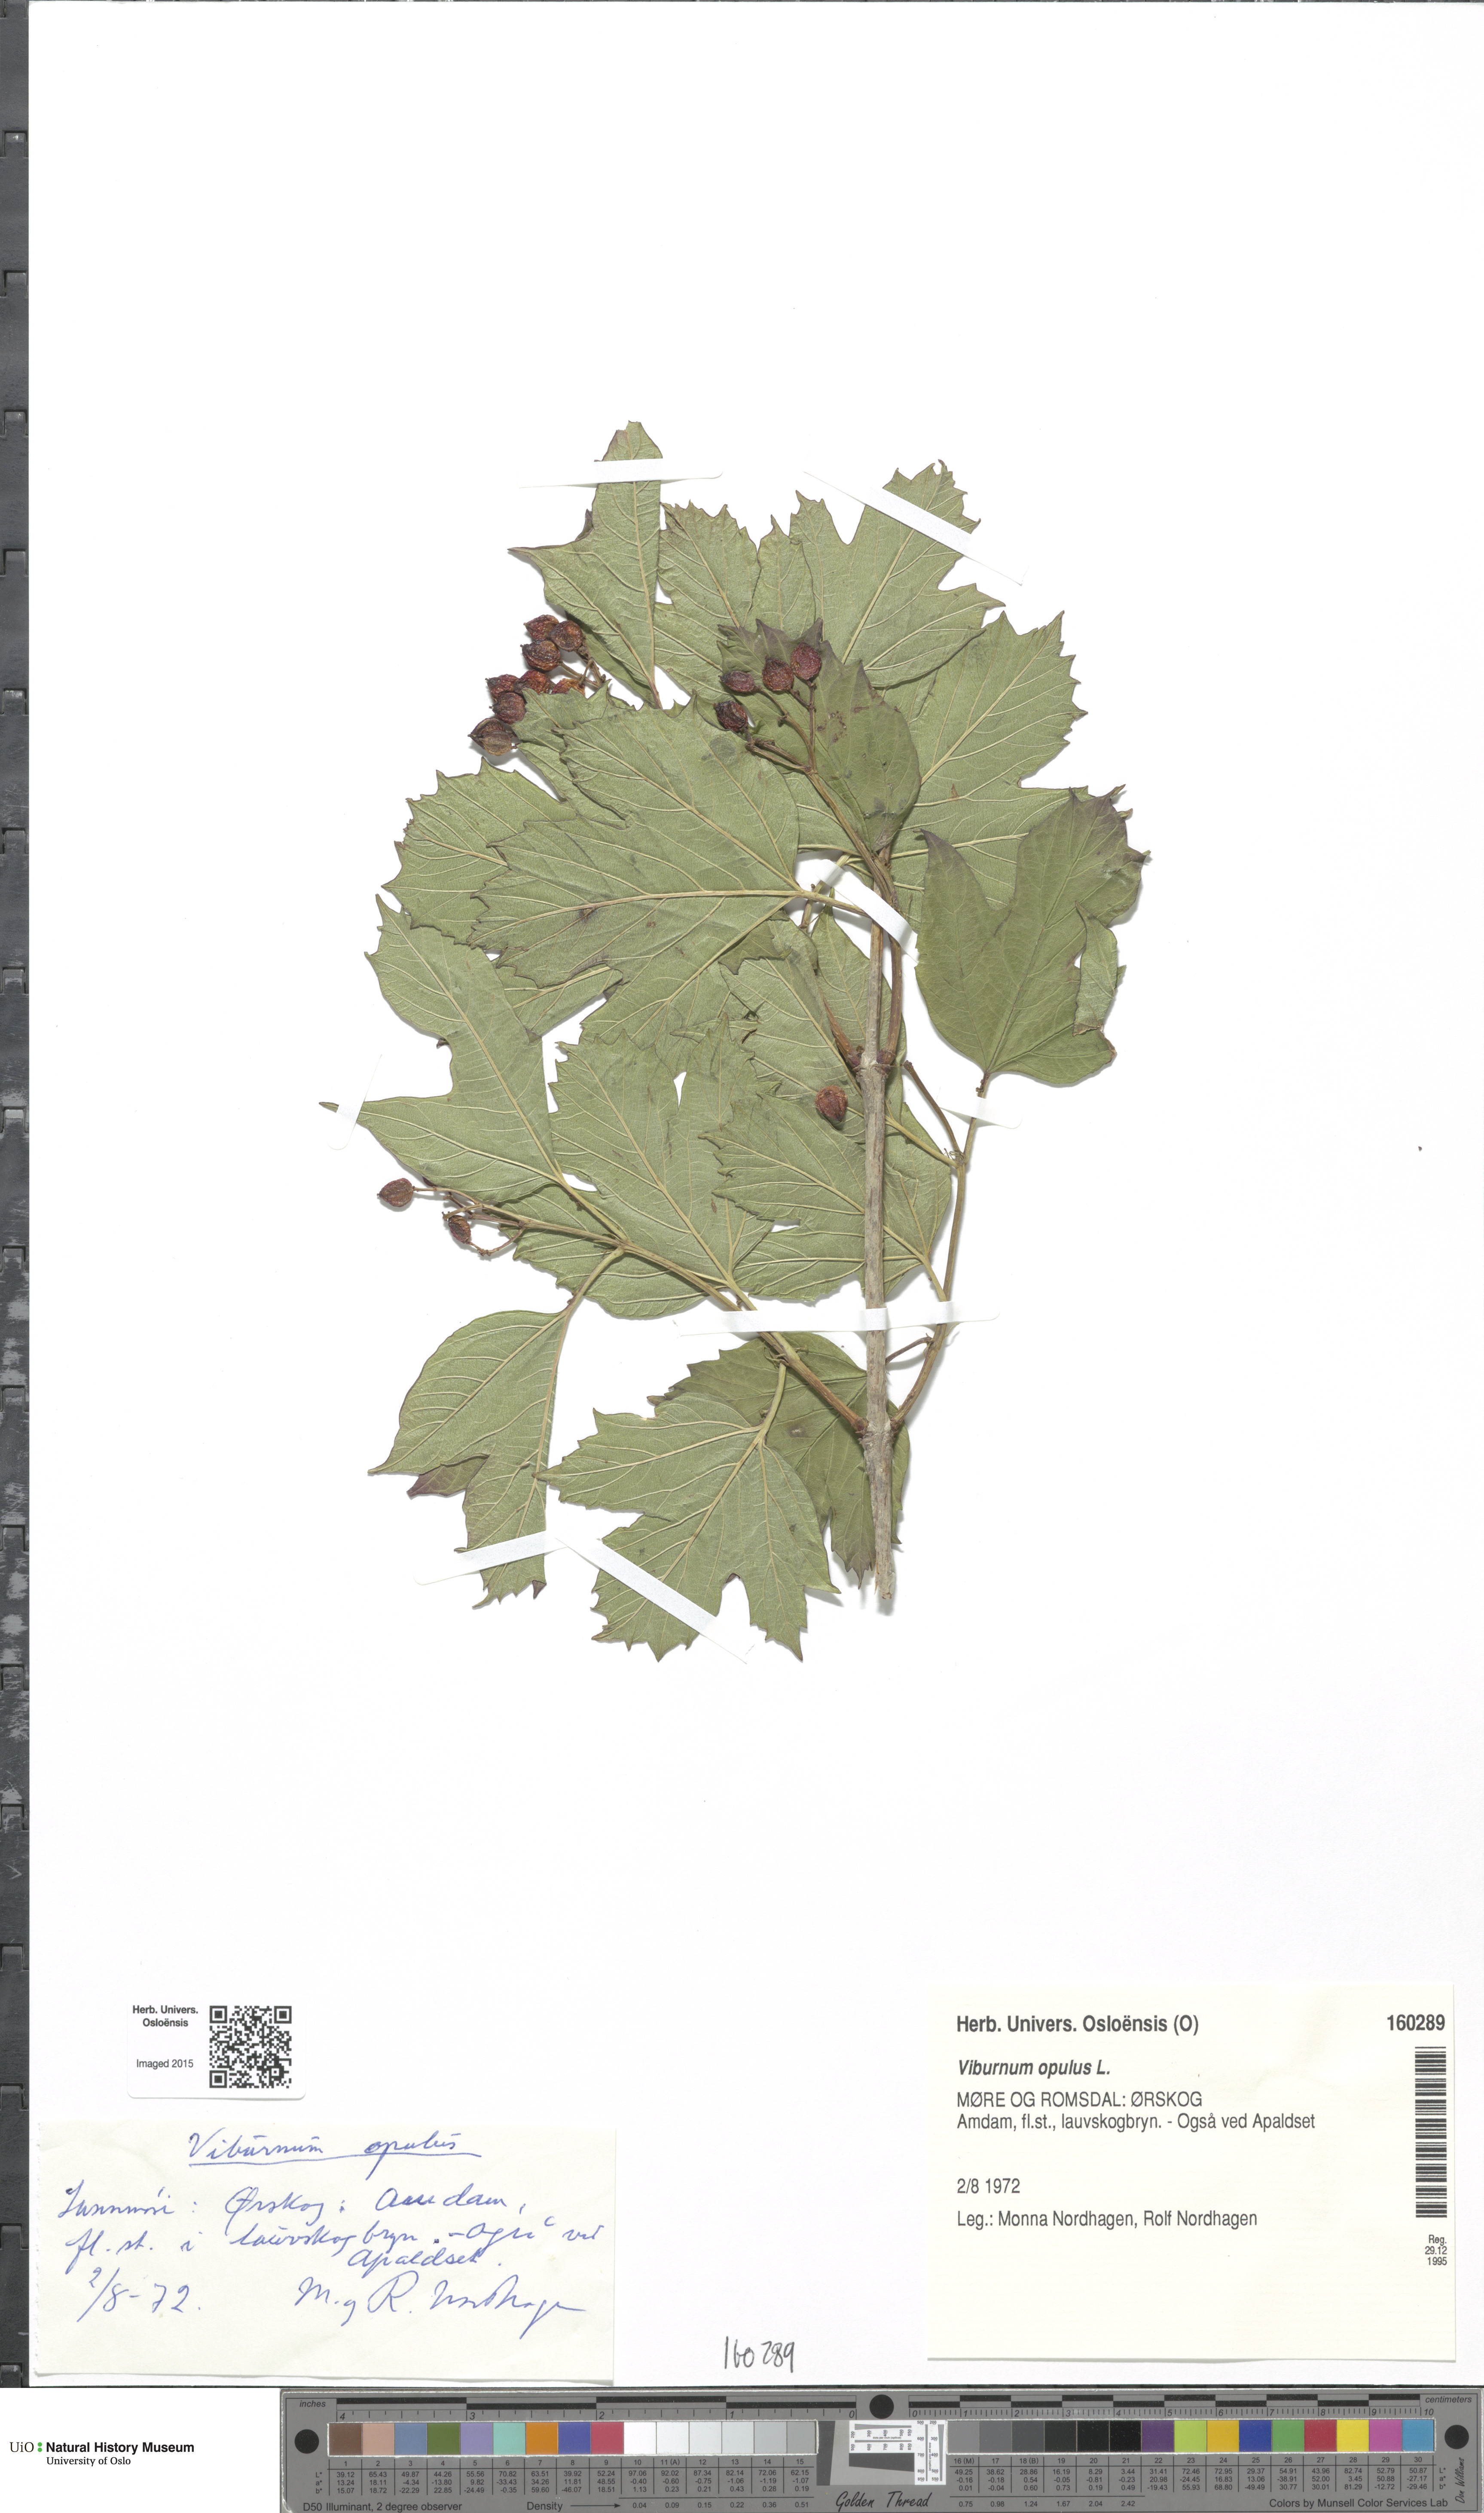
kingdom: Plantae
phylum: Tracheophyta
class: Magnoliopsida
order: Dipsacales
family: Viburnaceae
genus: Viburnum
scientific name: Viburnum opulus
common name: Guelder-rose
